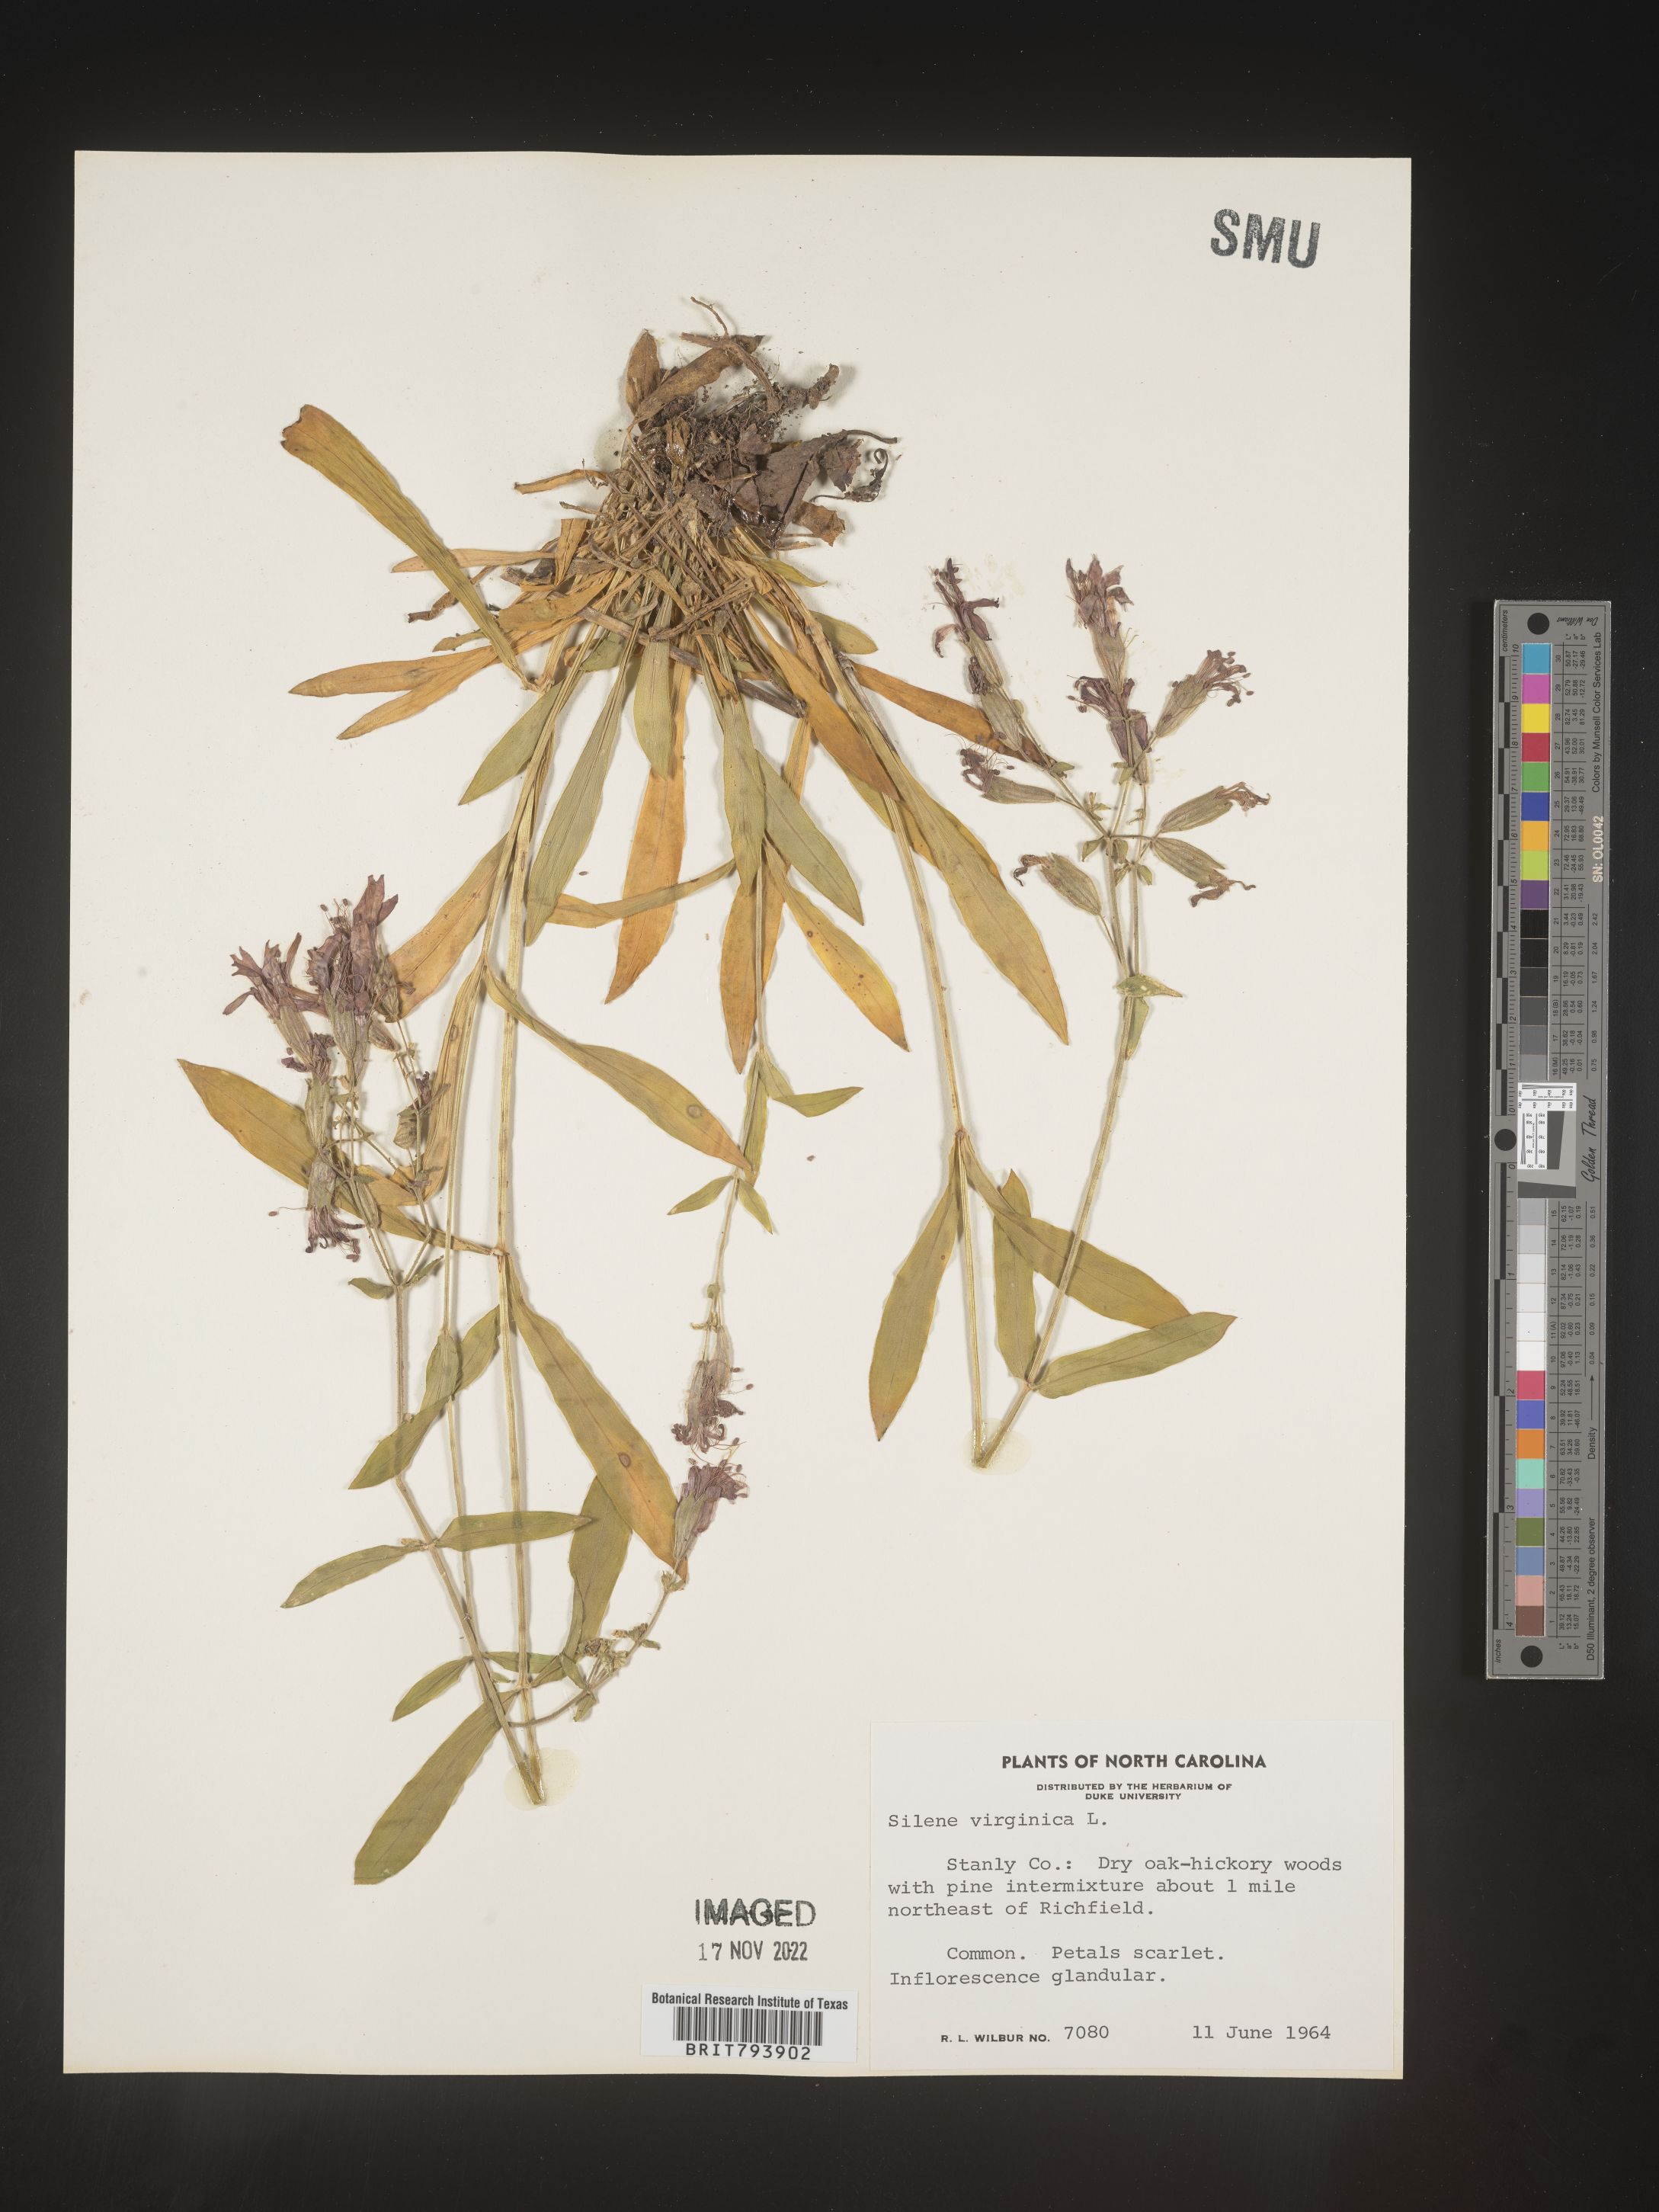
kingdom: Plantae
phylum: Tracheophyta
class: Magnoliopsida
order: Caryophyllales
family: Caryophyllaceae
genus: Silene
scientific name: Silene virginica
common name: Fire-pink
